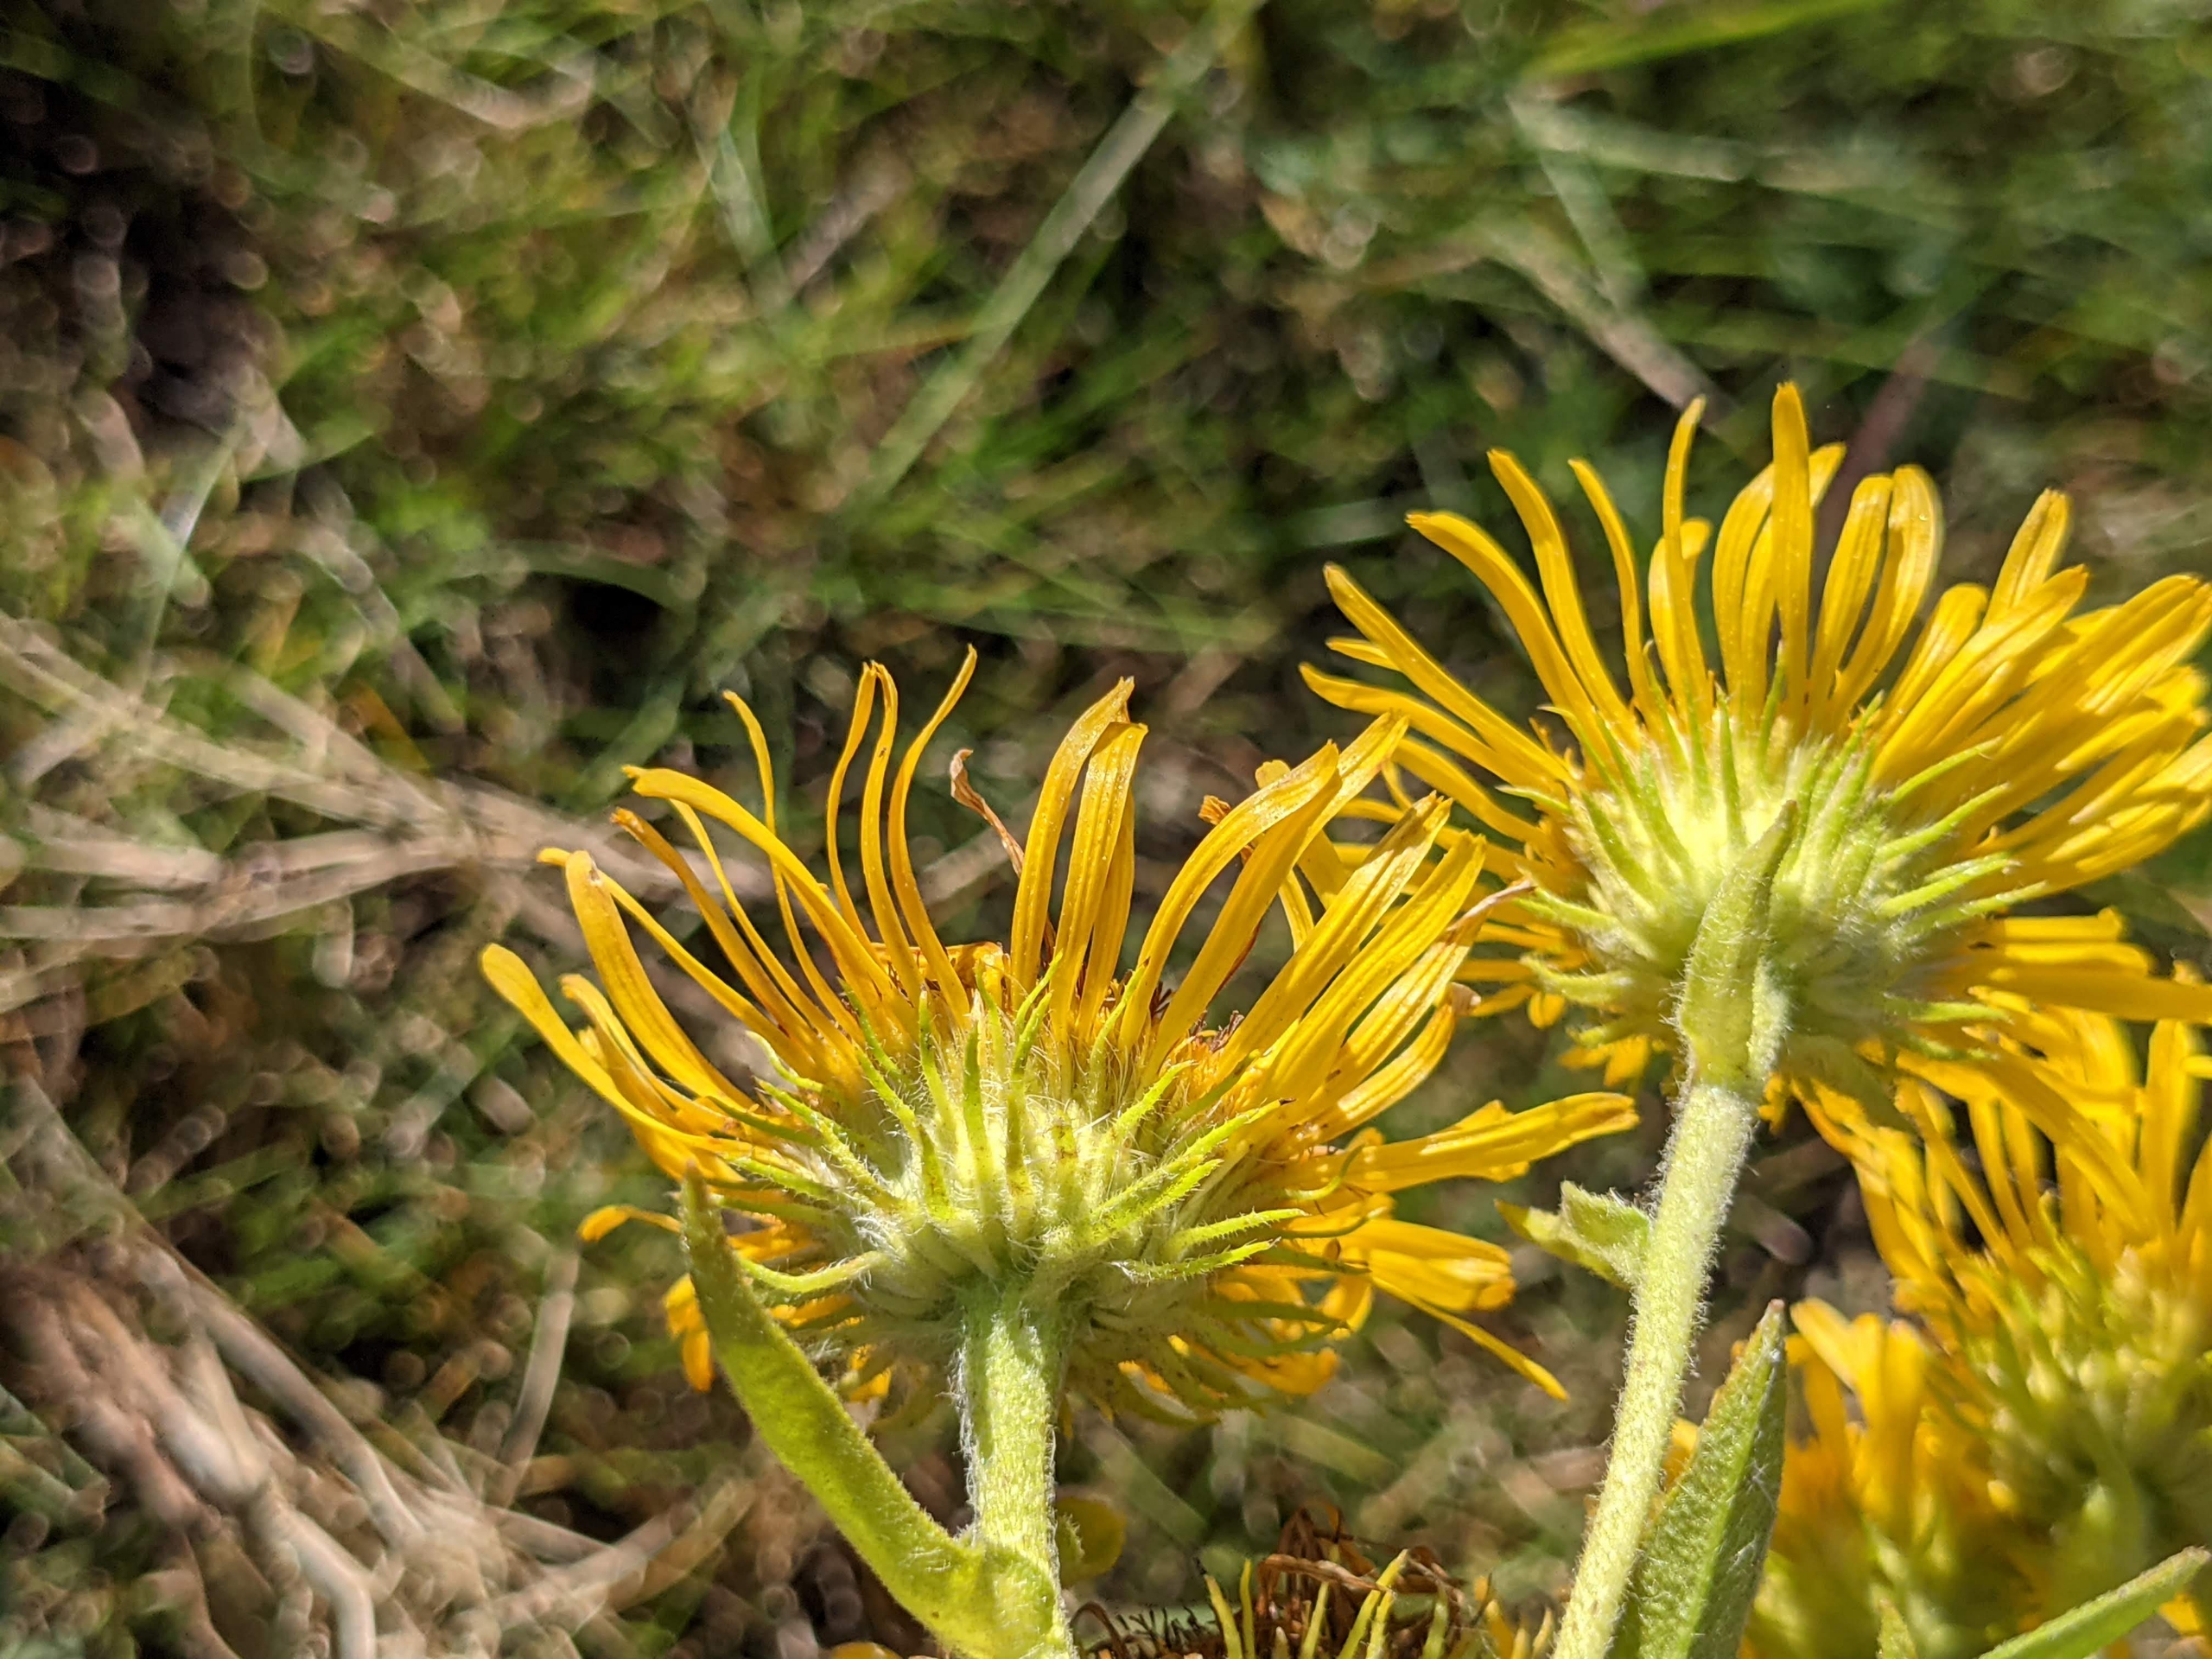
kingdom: Plantae
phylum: Tracheophyta
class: Magnoliopsida
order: Asterales
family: Asteraceae
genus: Pentanema
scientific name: Pentanema britannicum
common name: Soløje-alant
